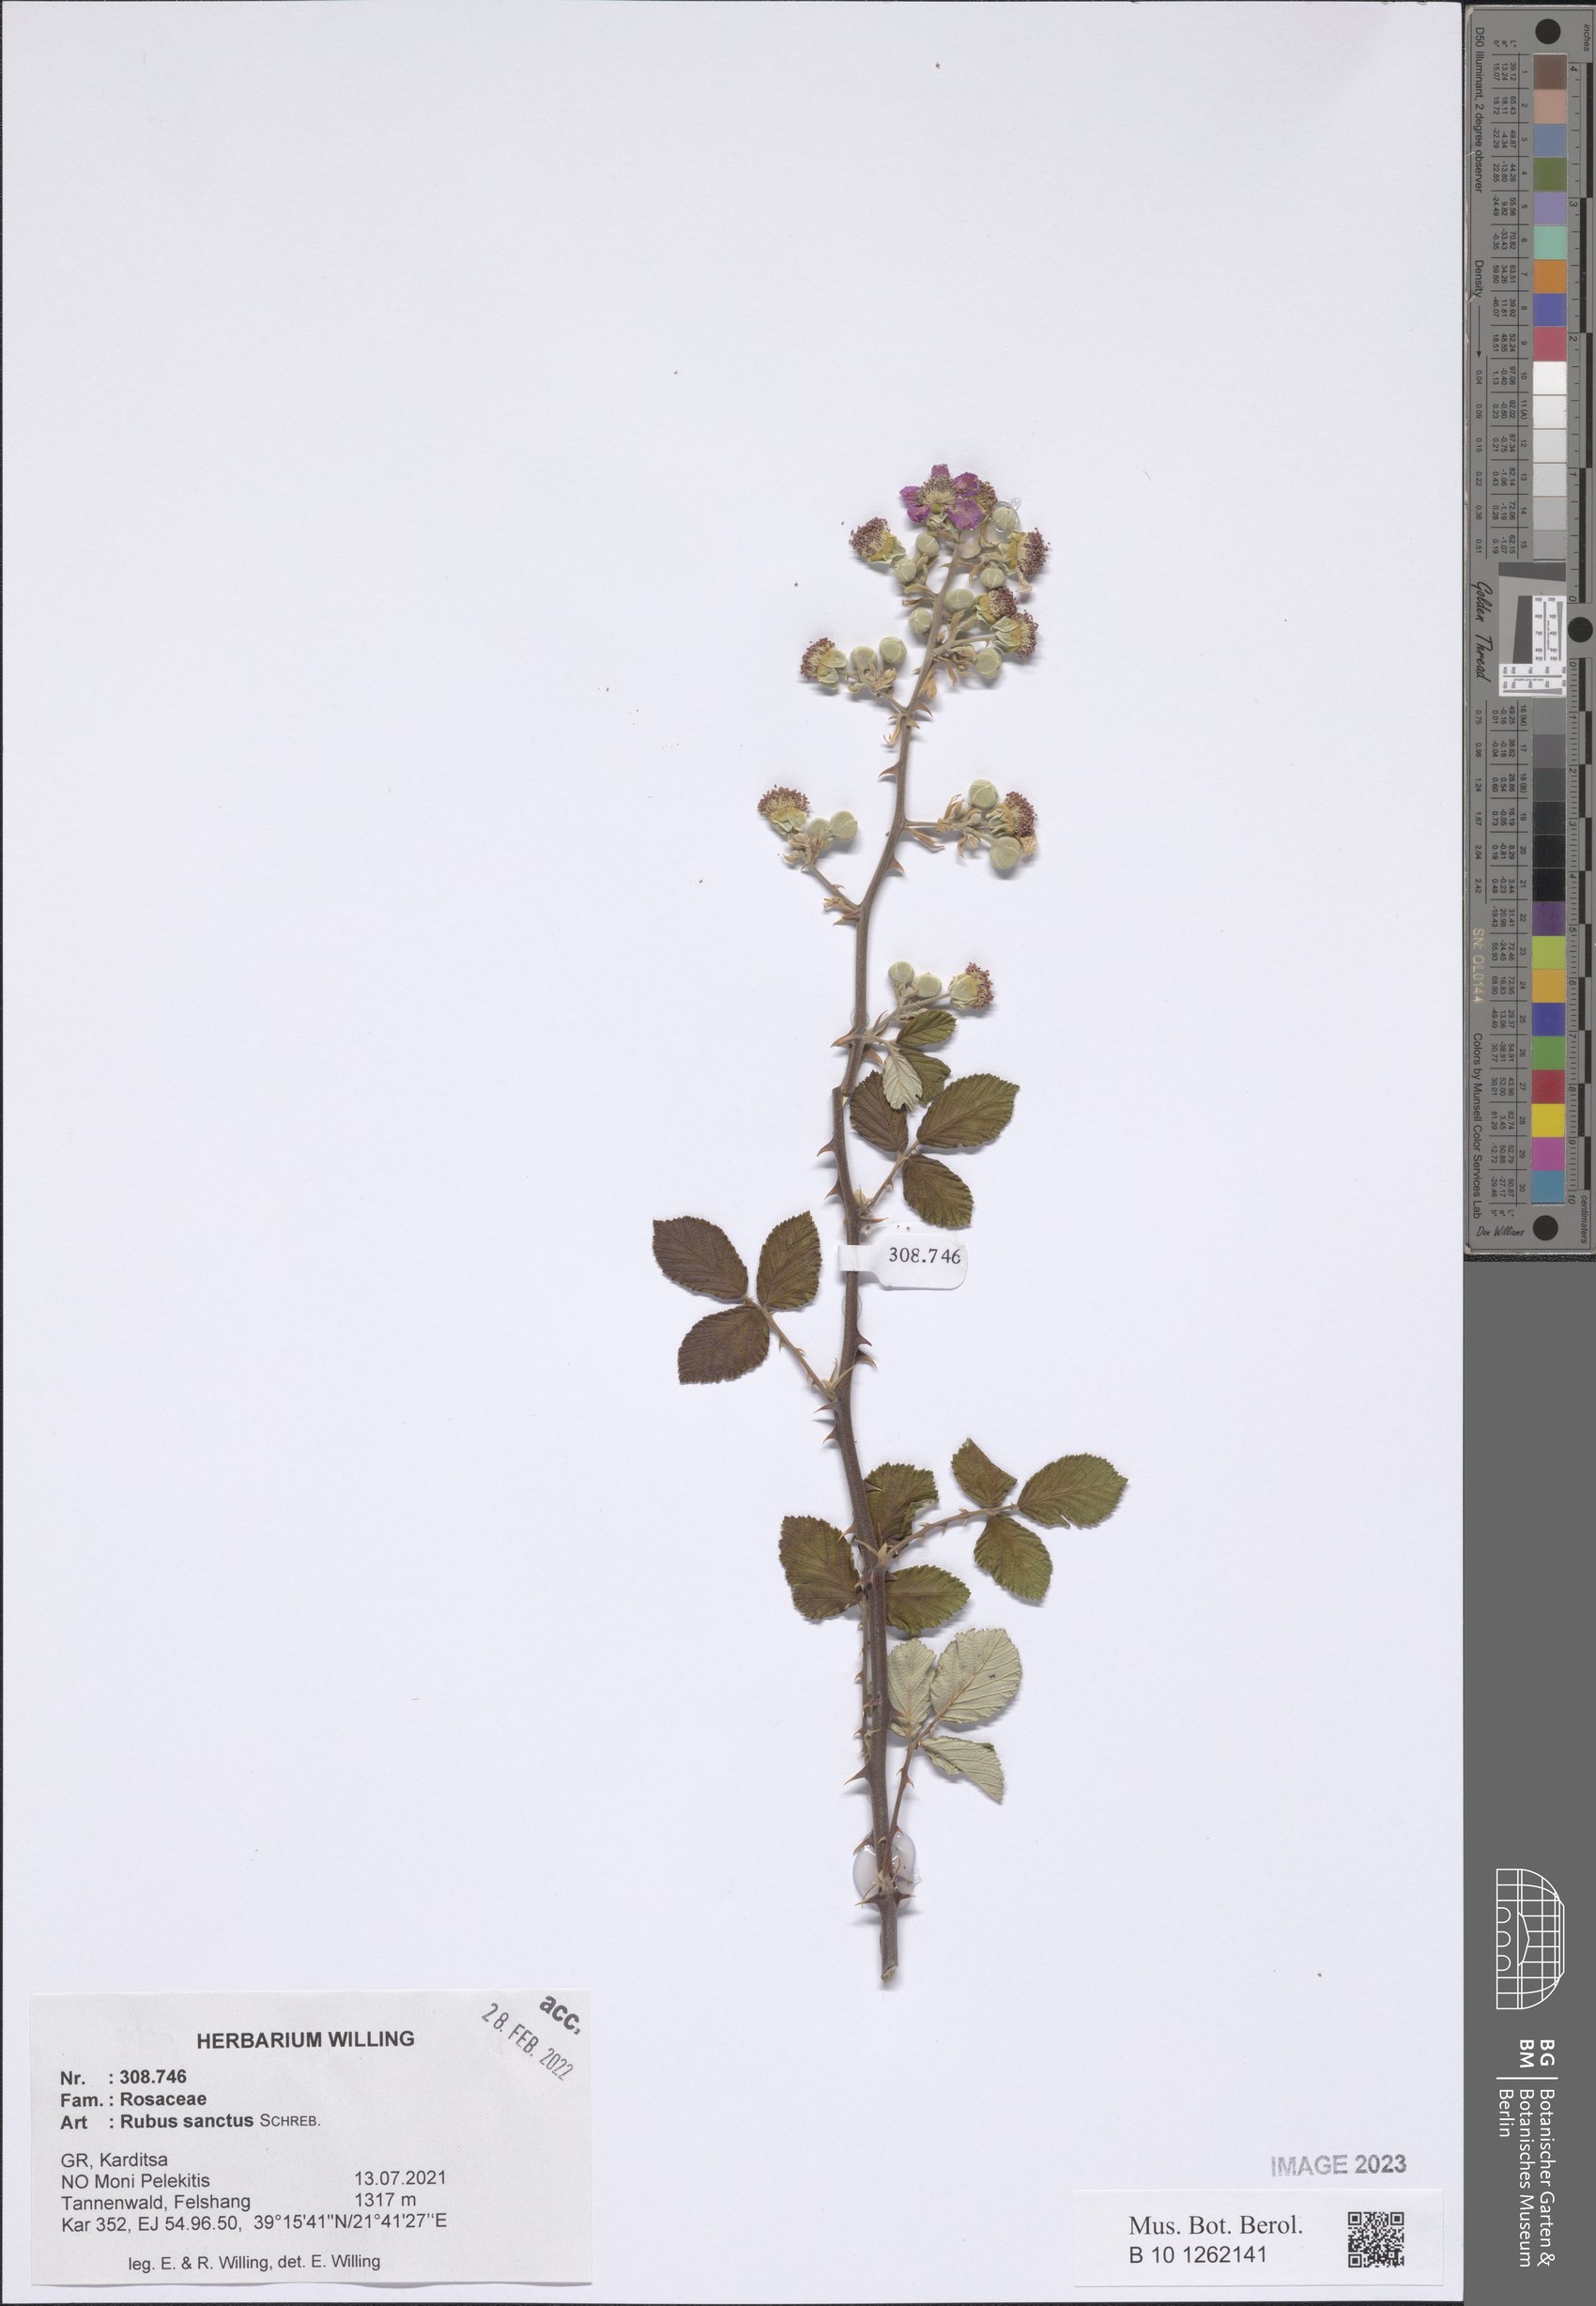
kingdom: Plantae
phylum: Tracheophyta
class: Magnoliopsida
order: Rosales
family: Rosaceae
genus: Rubus
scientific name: Rubus sanctus
